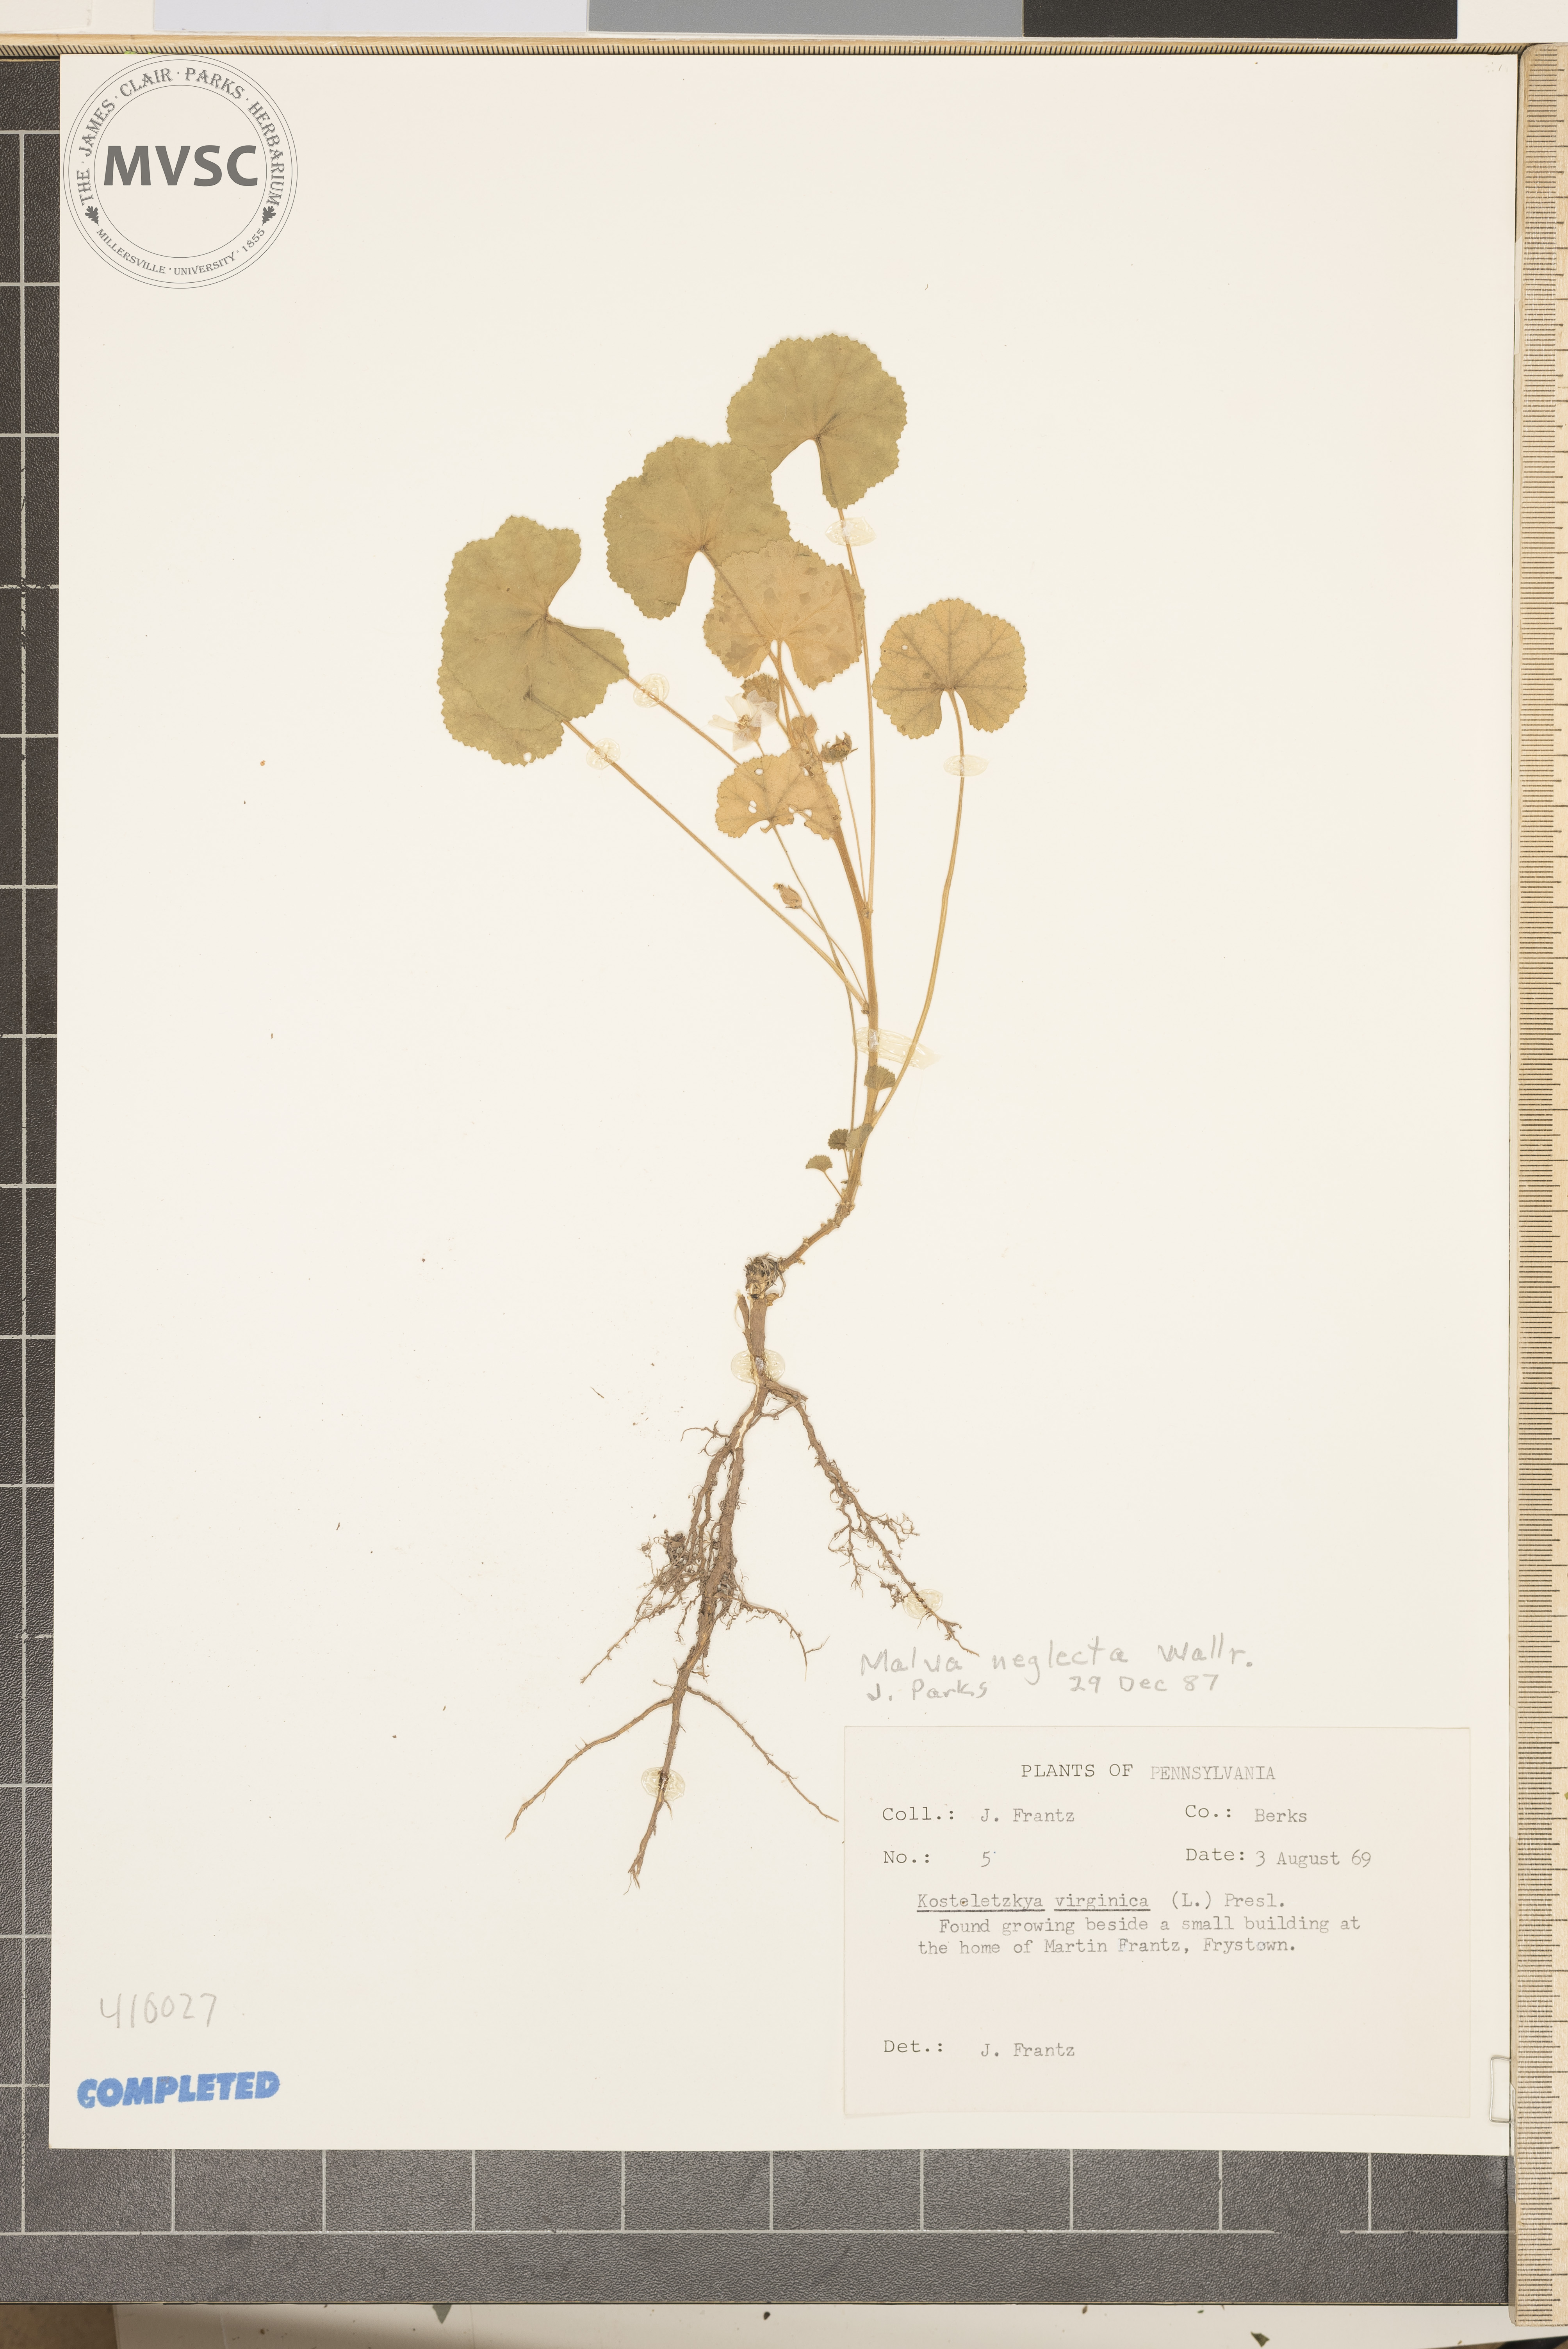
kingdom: Plantae
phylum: Tracheophyta
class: Magnoliopsida
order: Malvales
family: Malvaceae
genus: Malva
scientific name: Malva neglecta
